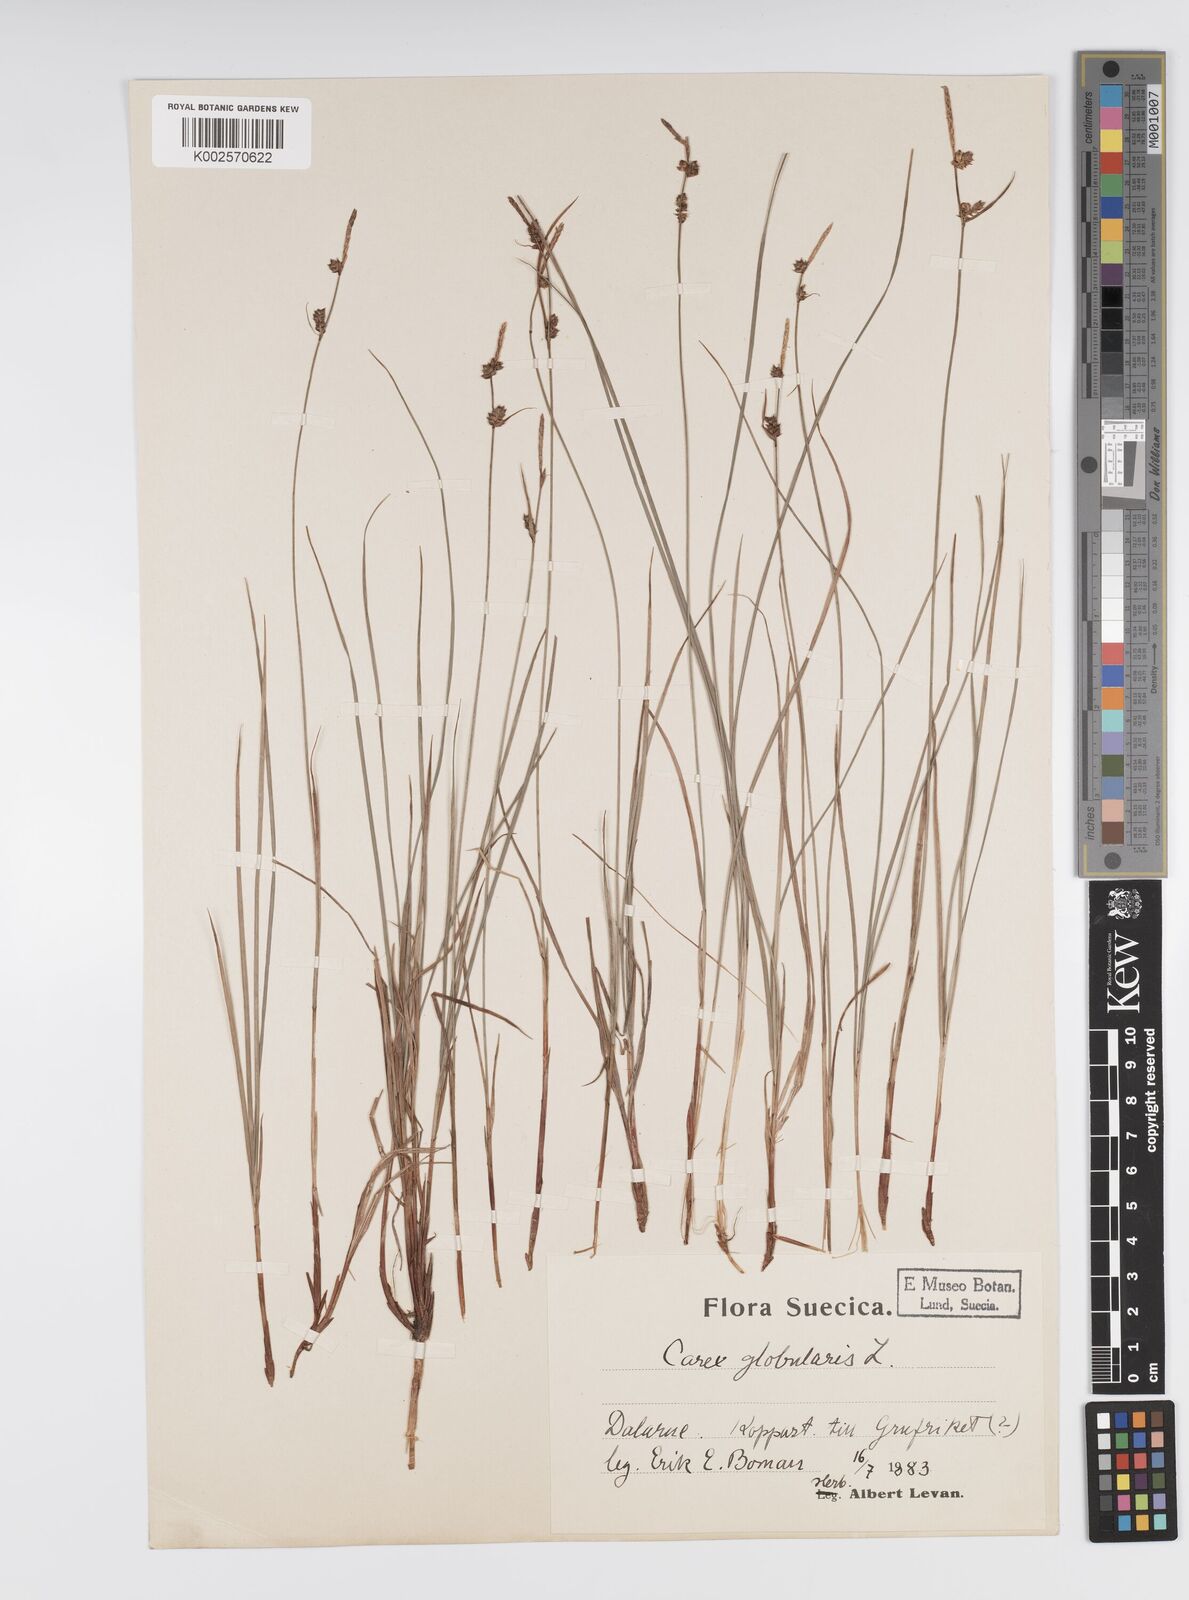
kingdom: Plantae
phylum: Tracheophyta
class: Liliopsida
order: Poales
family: Cyperaceae
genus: Carex
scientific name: Carex globularis
